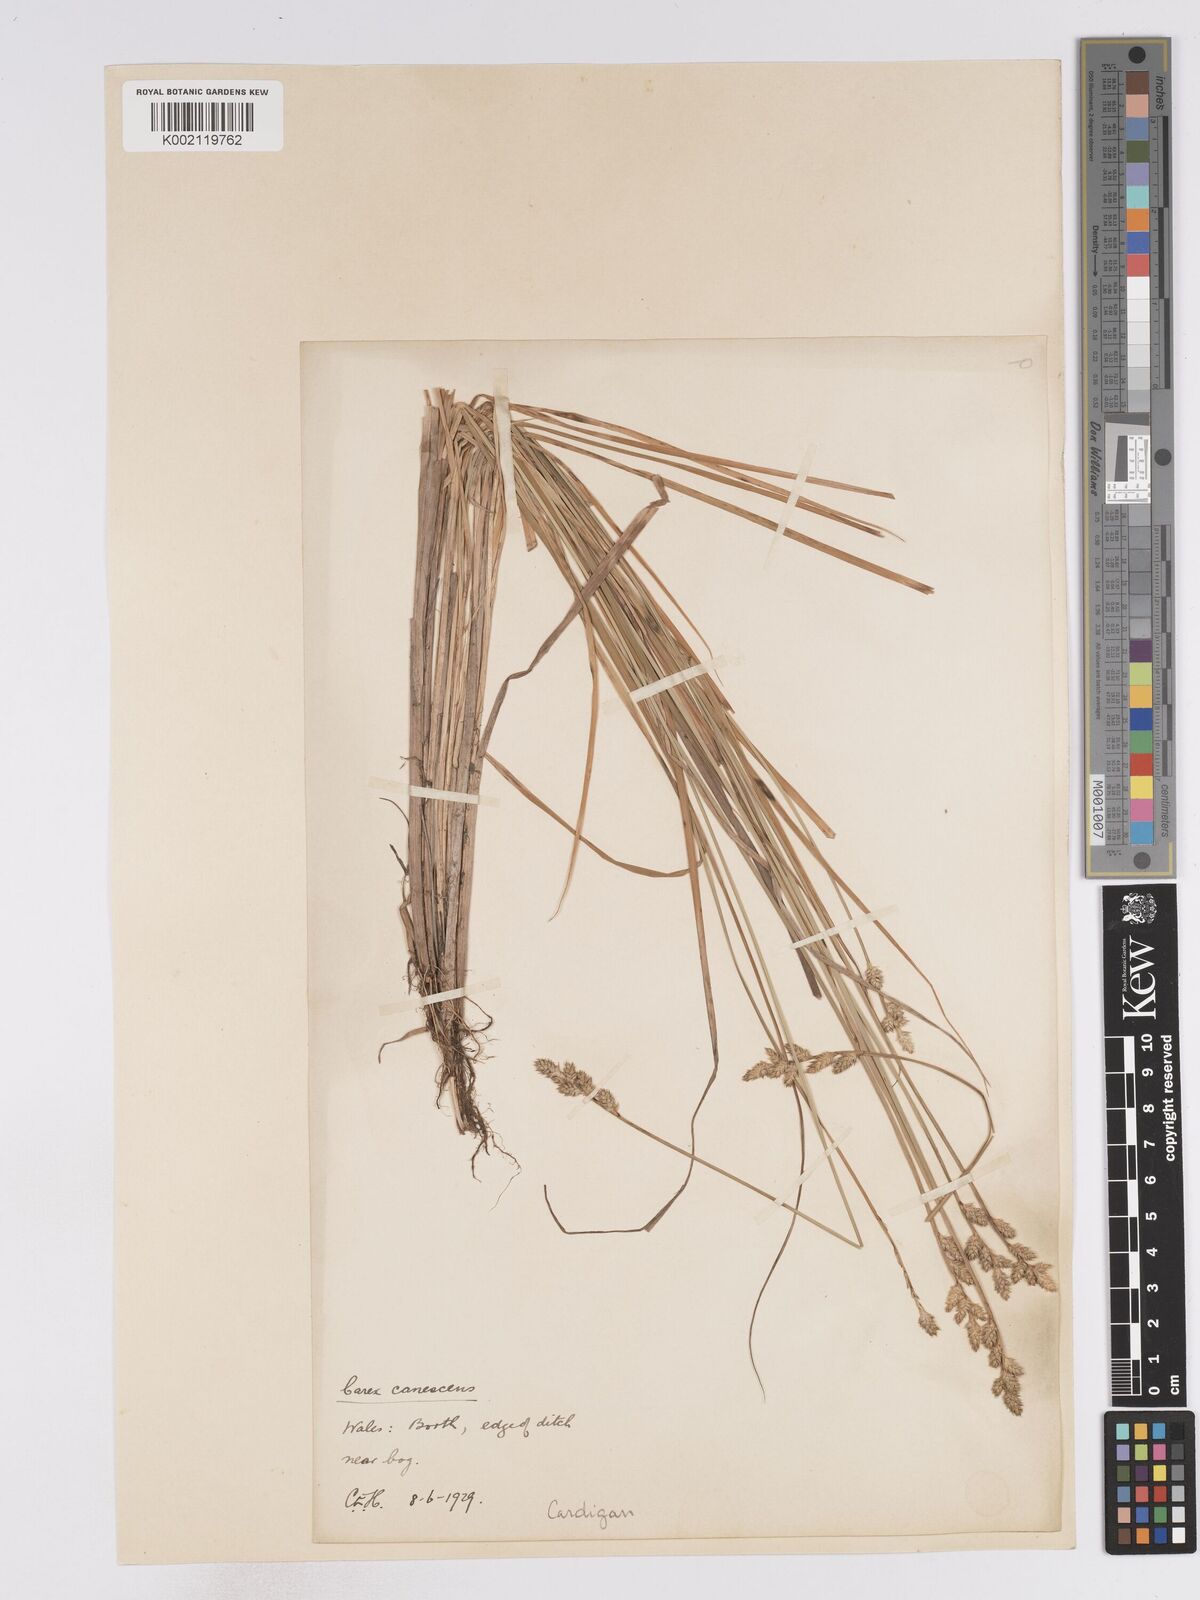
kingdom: Plantae
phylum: Tracheophyta
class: Liliopsida
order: Poales
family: Cyperaceae
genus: Carex
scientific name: Carex curta
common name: White sedge
